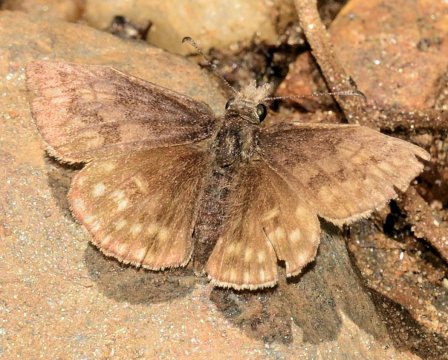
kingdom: Animalia
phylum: Arthropoda
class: Insecta
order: Lepidoptera
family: Hesperiidae
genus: Erynnis
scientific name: Erynnis icelus
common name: Dreamy Duskywing
